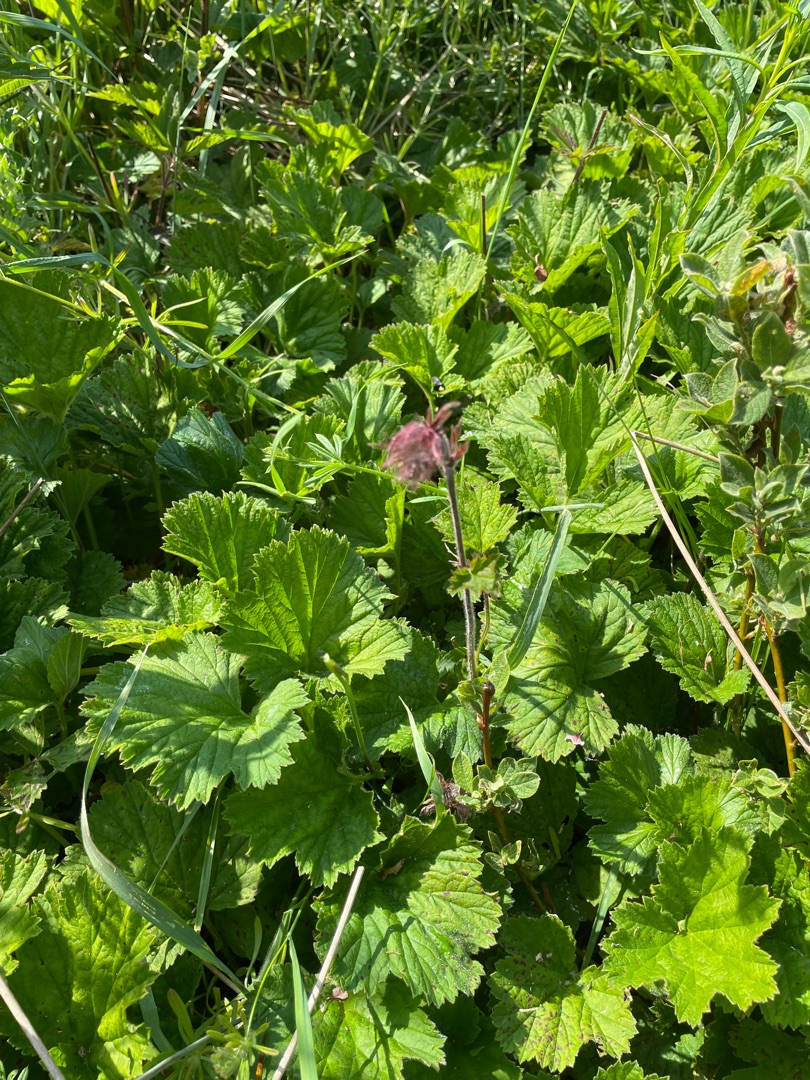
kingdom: Plantae
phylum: Tracheophyta
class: Magnoliopsida
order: Rosales
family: Rosaceae
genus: Geum
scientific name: Geum rivale
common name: Eng-nellikerod
